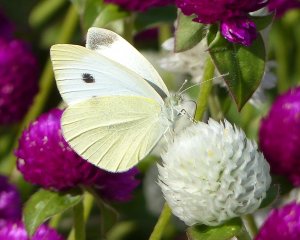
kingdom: Animalia
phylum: Arthropoda
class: Insecta
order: Lepidoptera
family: Pieridae
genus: Pieris
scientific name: Pieris rapae
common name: Cabbage White
